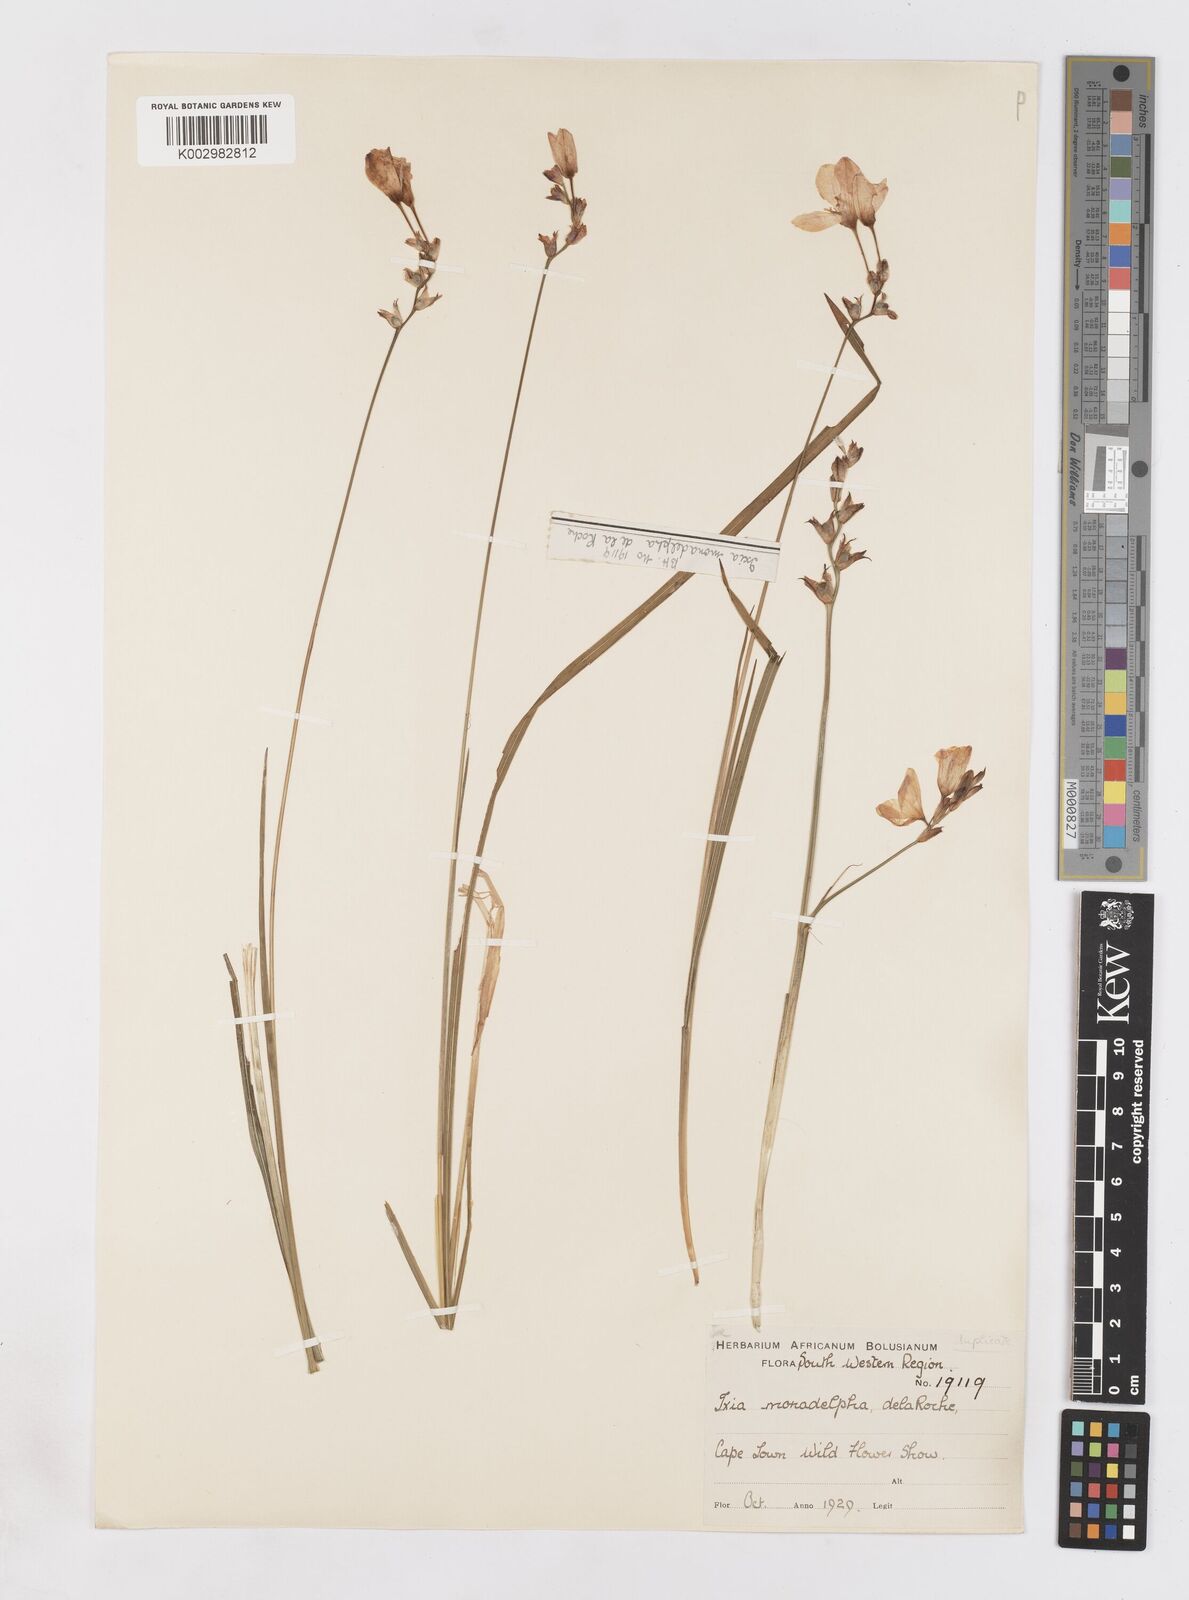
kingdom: Plantae
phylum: Tracheophyta
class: Liliopsida
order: Asparagales
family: Iridaceae
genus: Ixia
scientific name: Ixia monadelpha
